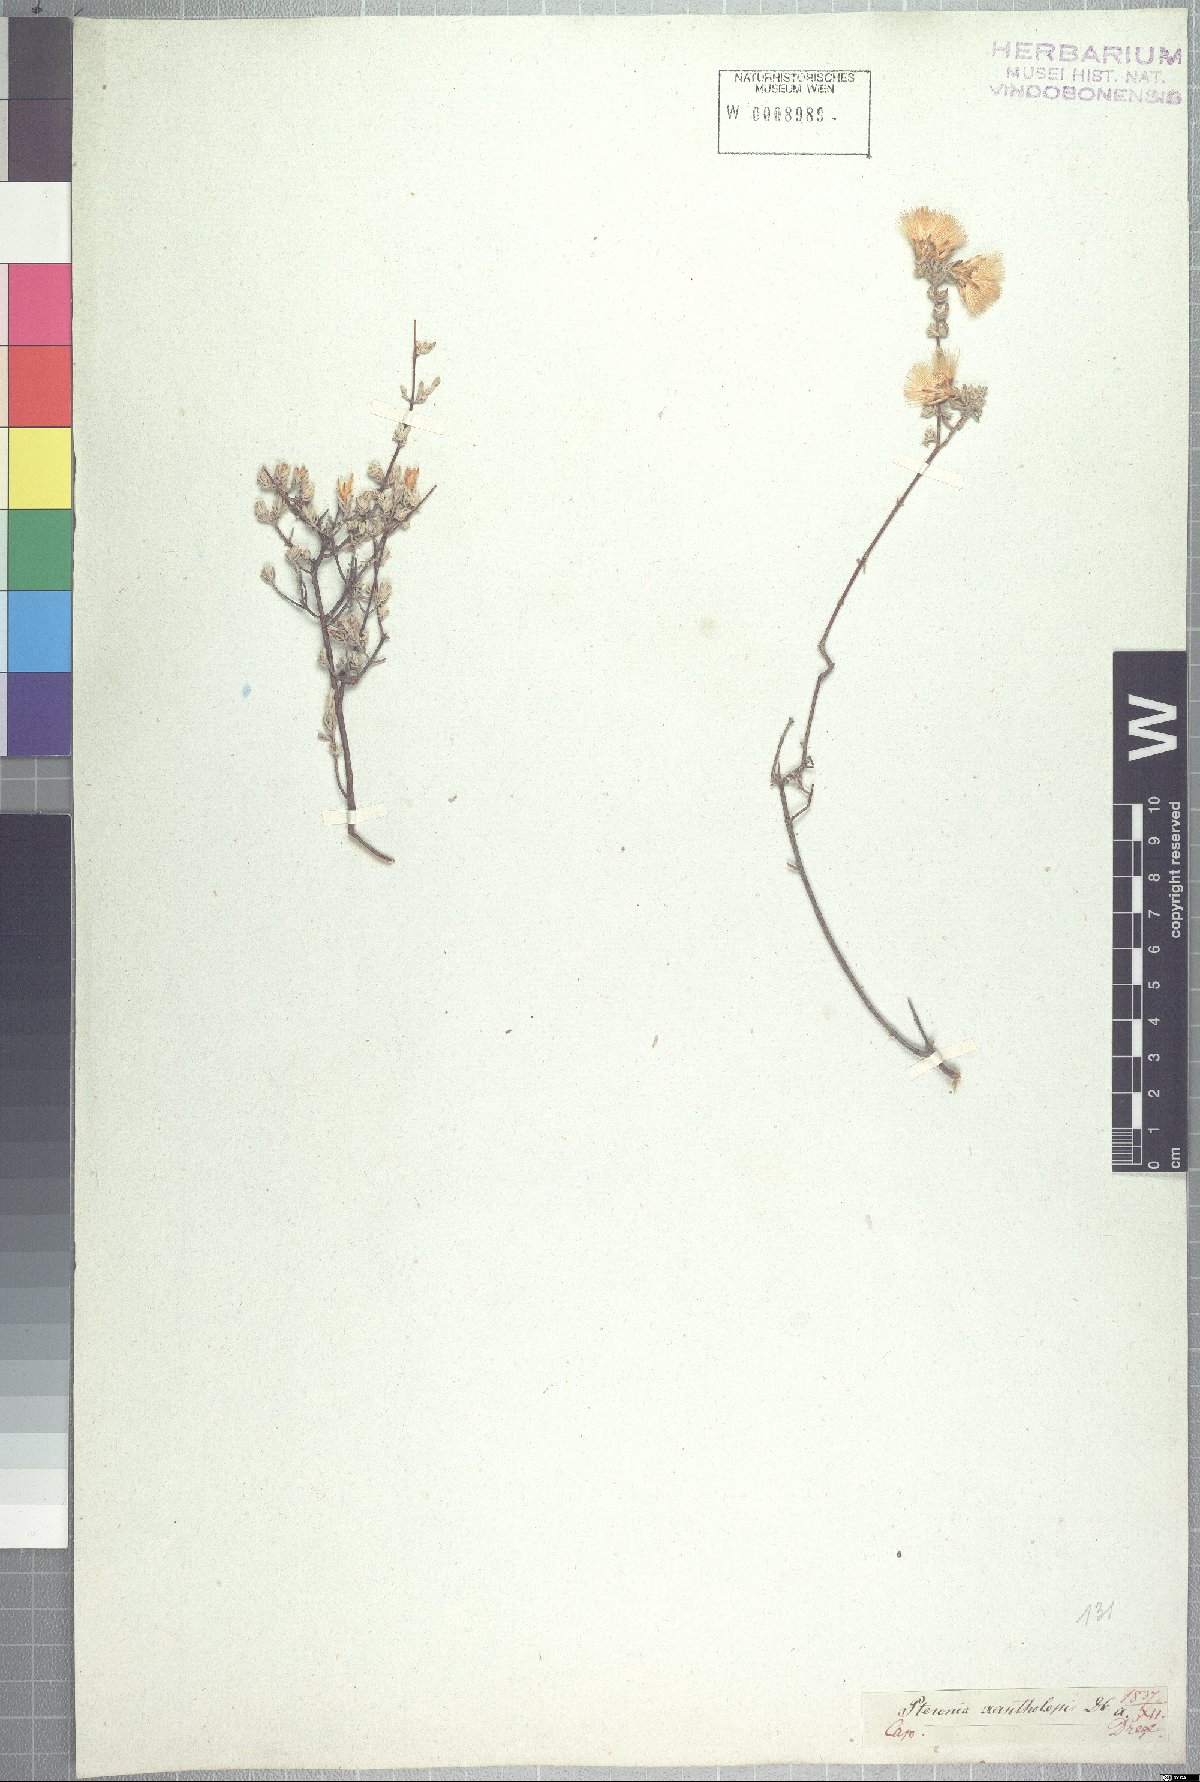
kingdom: Plantae
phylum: Tracheophyta
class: Magnoliopsida
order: Asterales
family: Asteraceae
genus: Pteronia
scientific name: Pteronia incana
